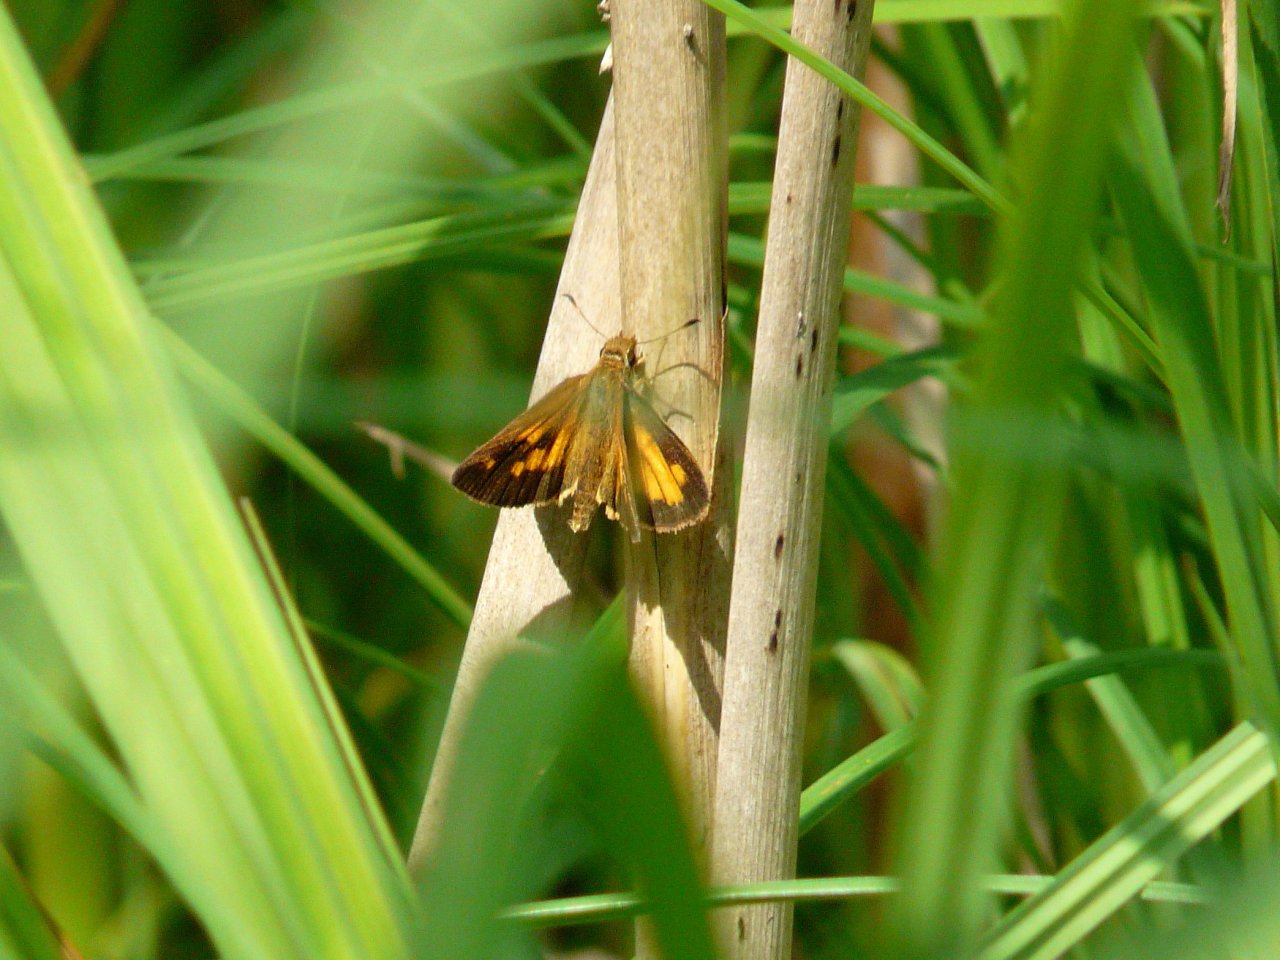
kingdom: Animalia
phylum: Arthropoda
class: Insecta
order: Lepidoptera
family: Hesperiidae
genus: Poanes
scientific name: Poanes viator
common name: Broad-winged Skipper
